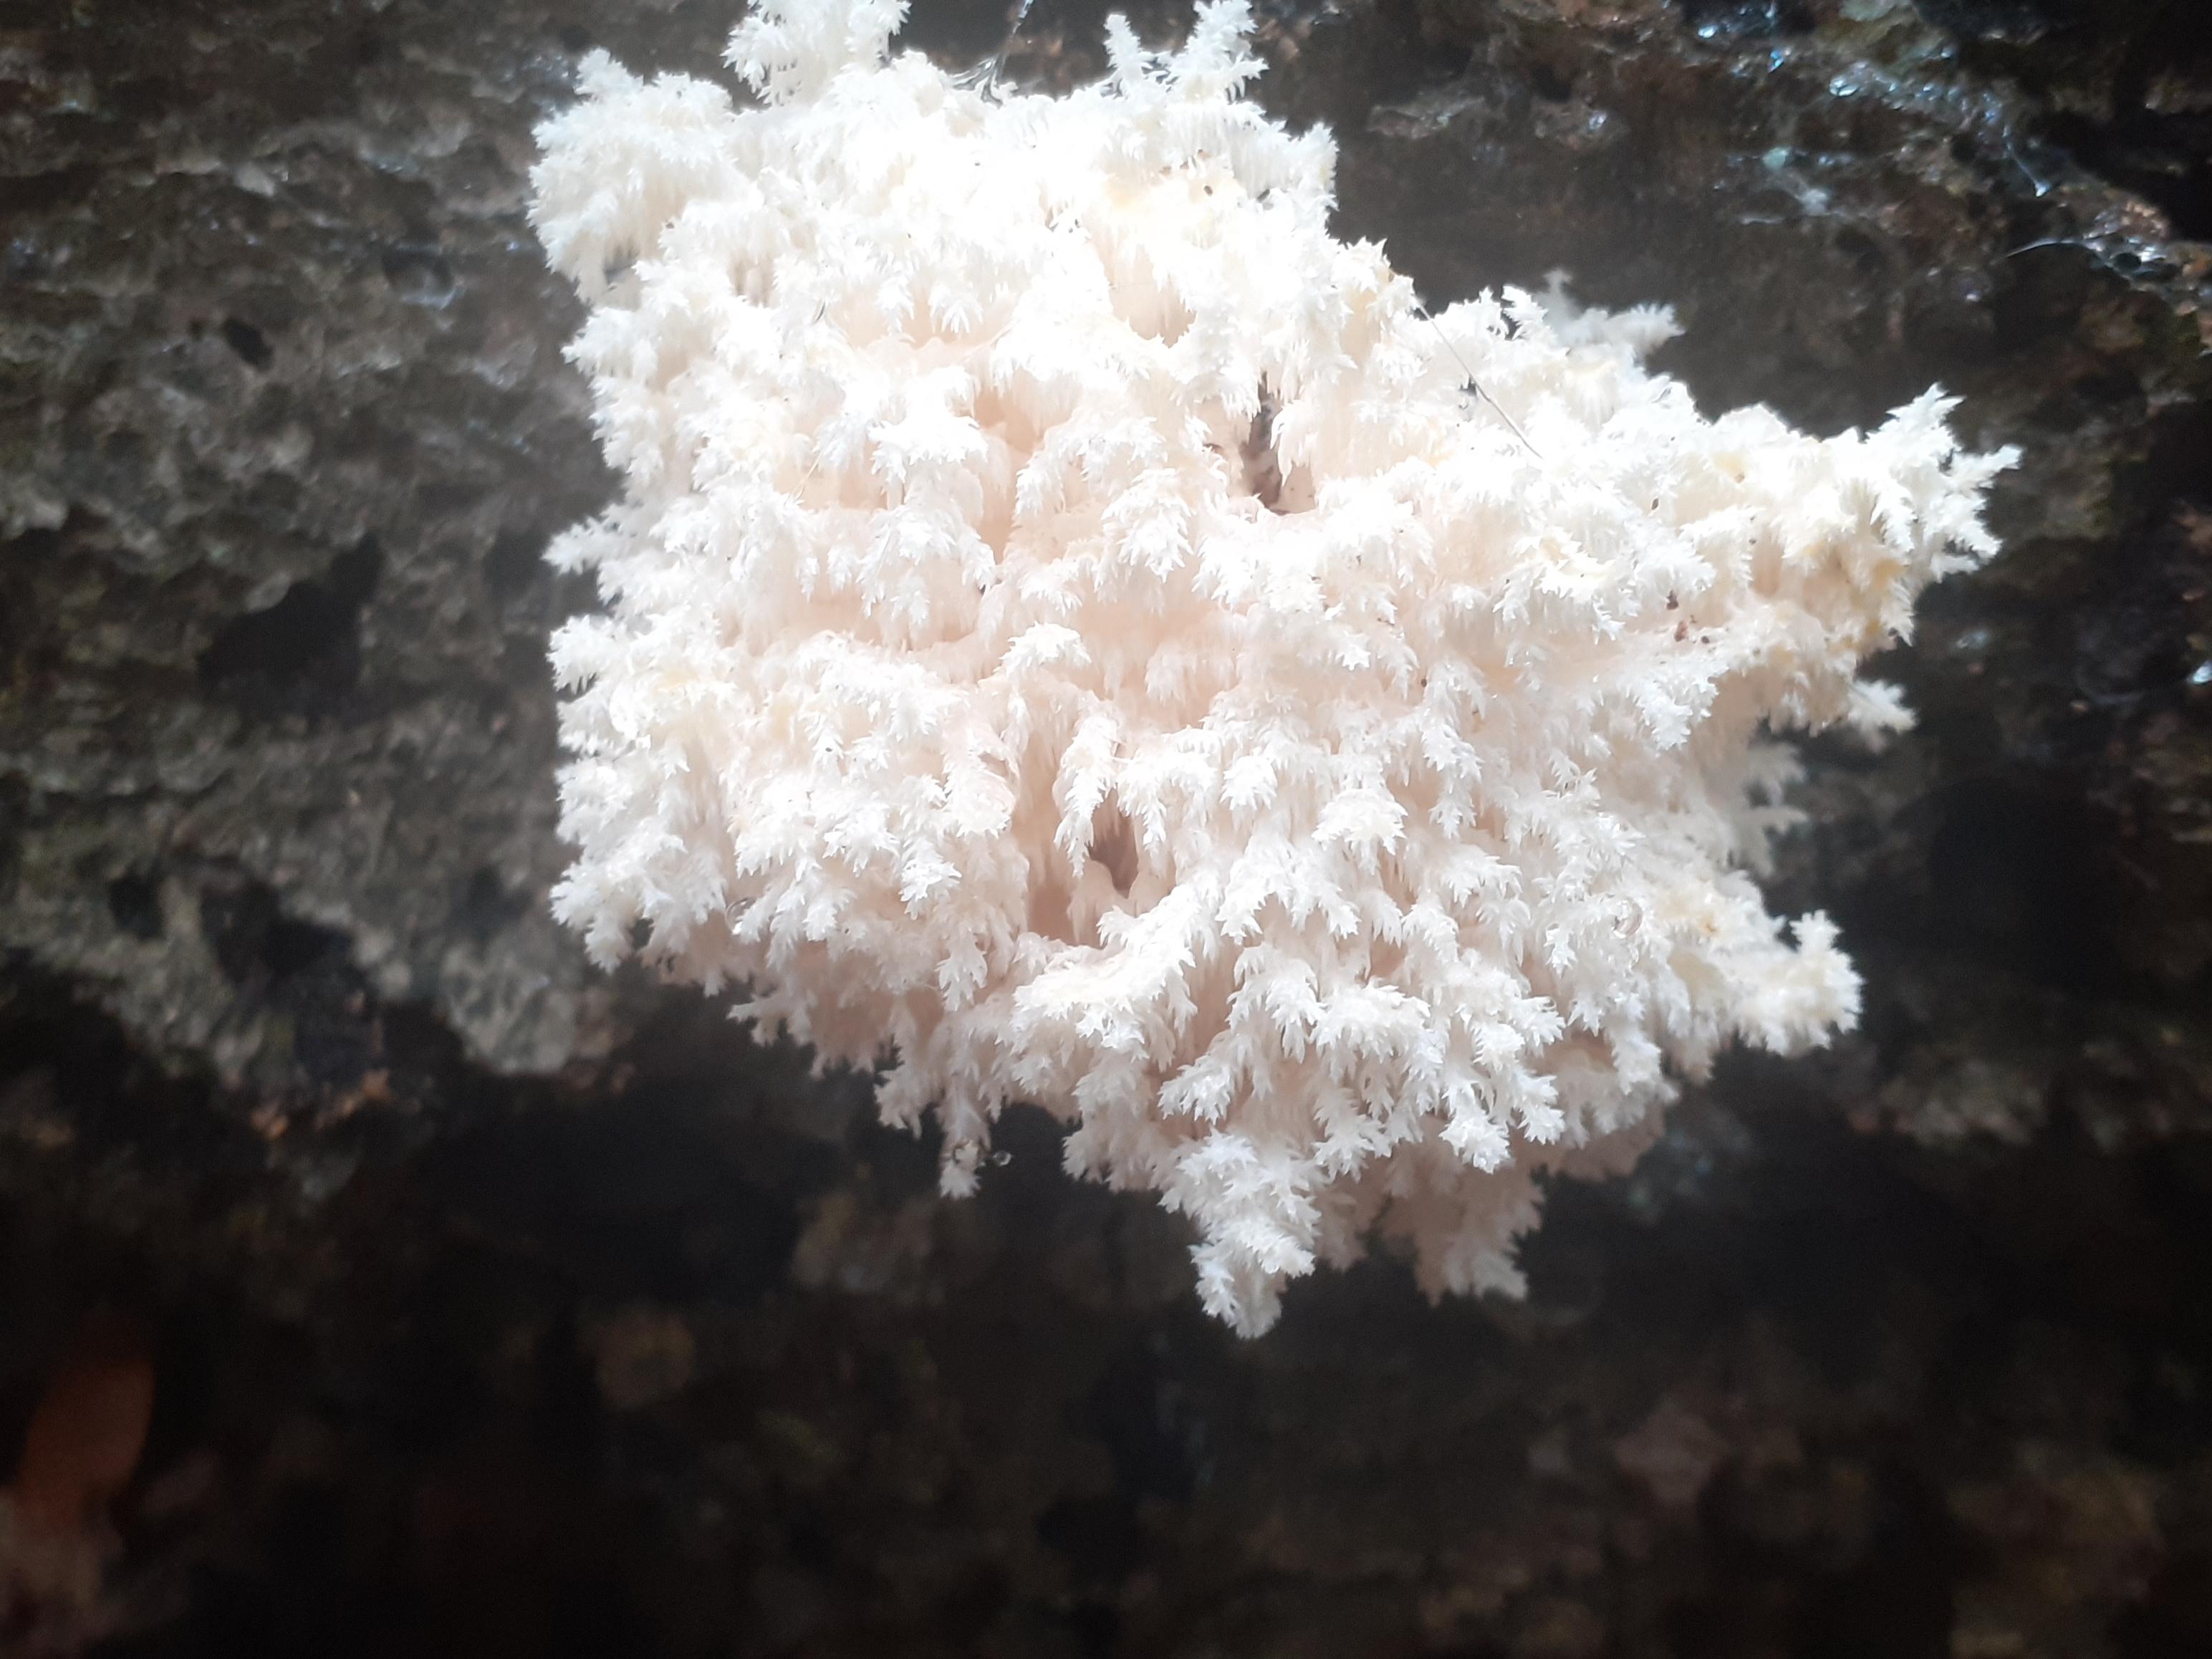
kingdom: Fungi
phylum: Basidiomycota
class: Agaricomycetes
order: Russulales
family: Hericiaceae
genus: Hericium
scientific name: Hericium coralloides
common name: koralpigsvamp
